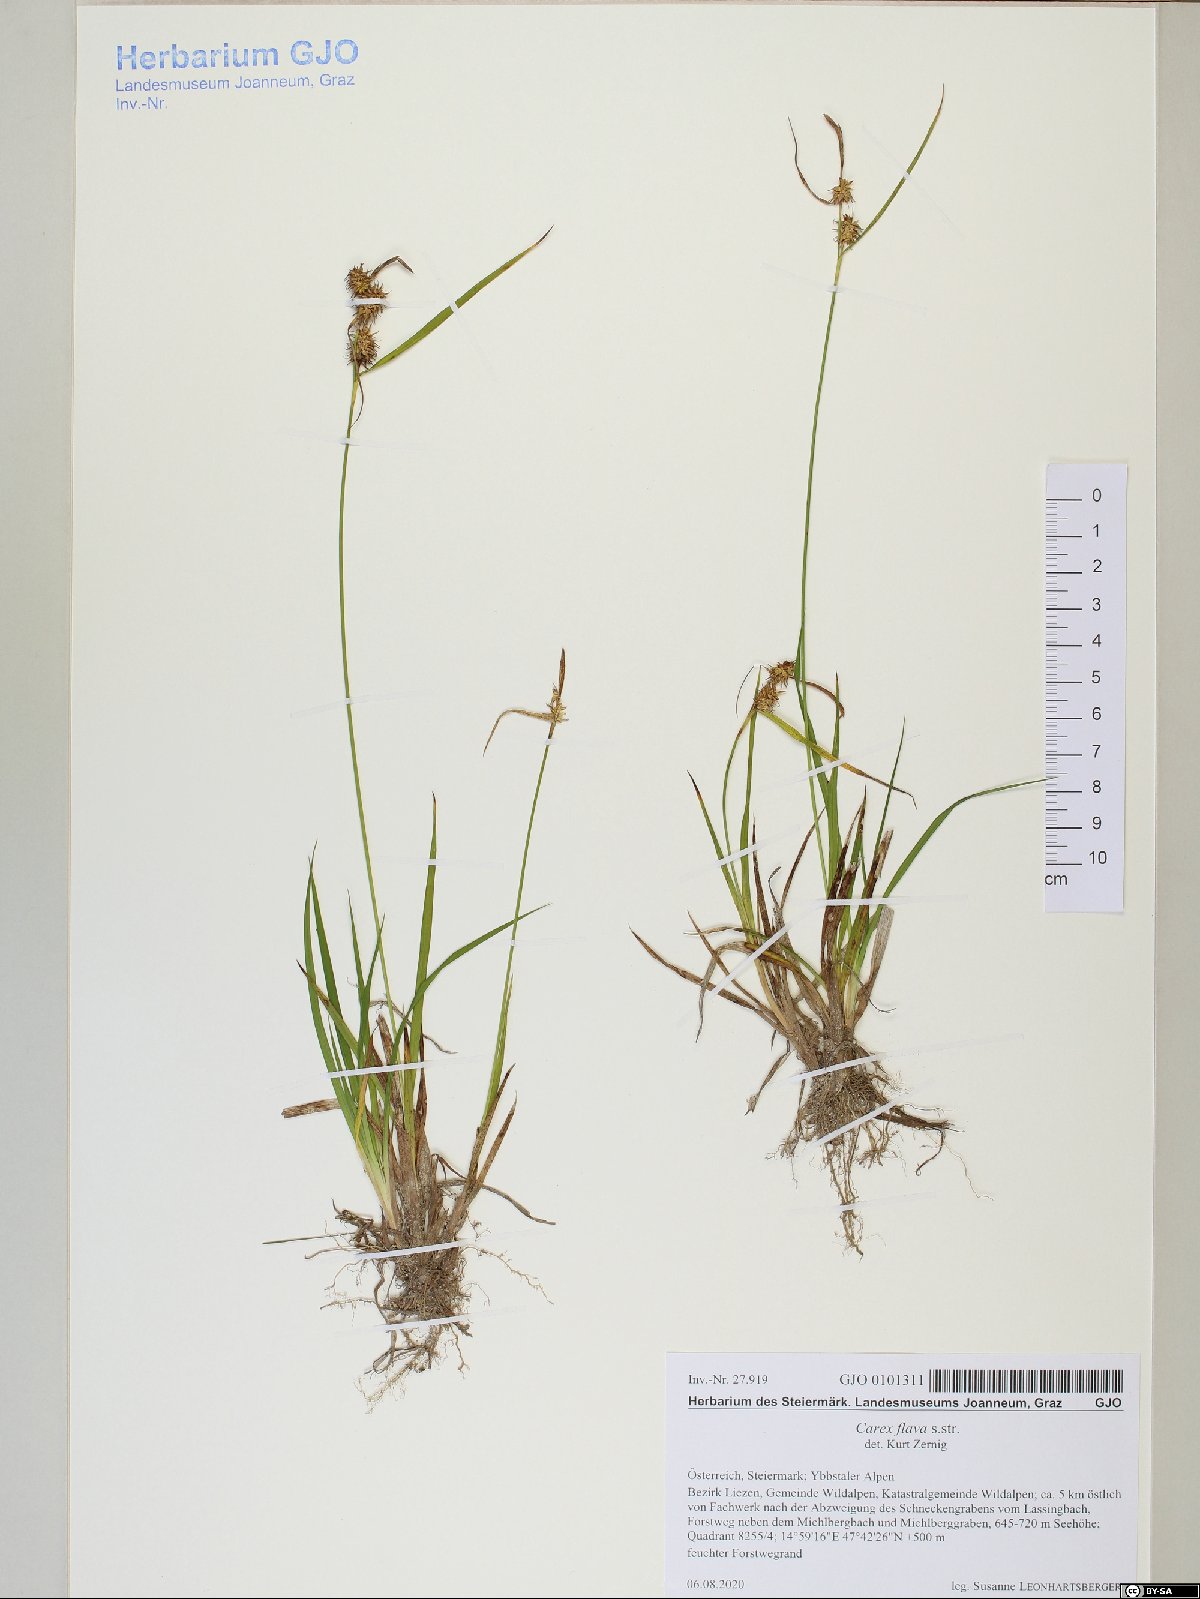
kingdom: Plantae
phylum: Tracheophyta
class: Liliopsida
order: Poales
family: Cyperaceae
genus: Carex
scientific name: Carex flava
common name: Large yellow-sedge
